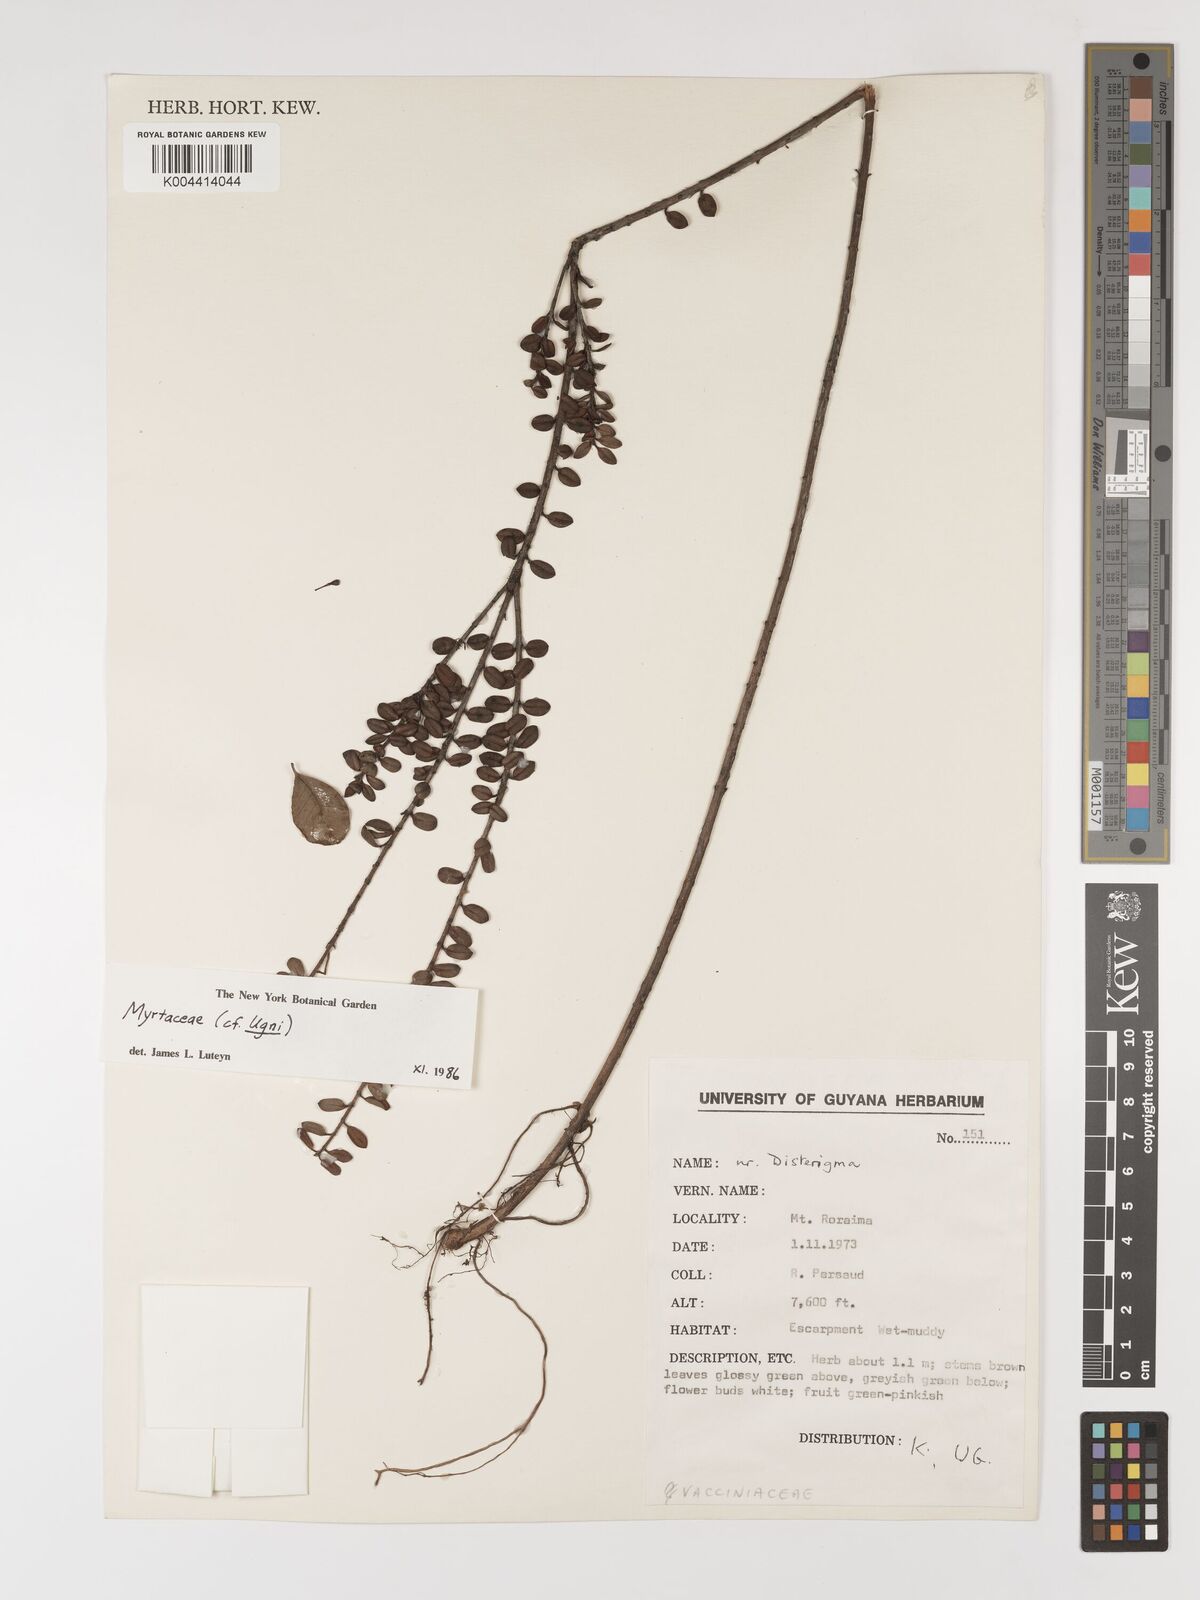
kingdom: Plantae
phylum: Tracheophyta
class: Magnoliopsida
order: Myrtales
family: Myrtaceae
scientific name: Myrtaceae
